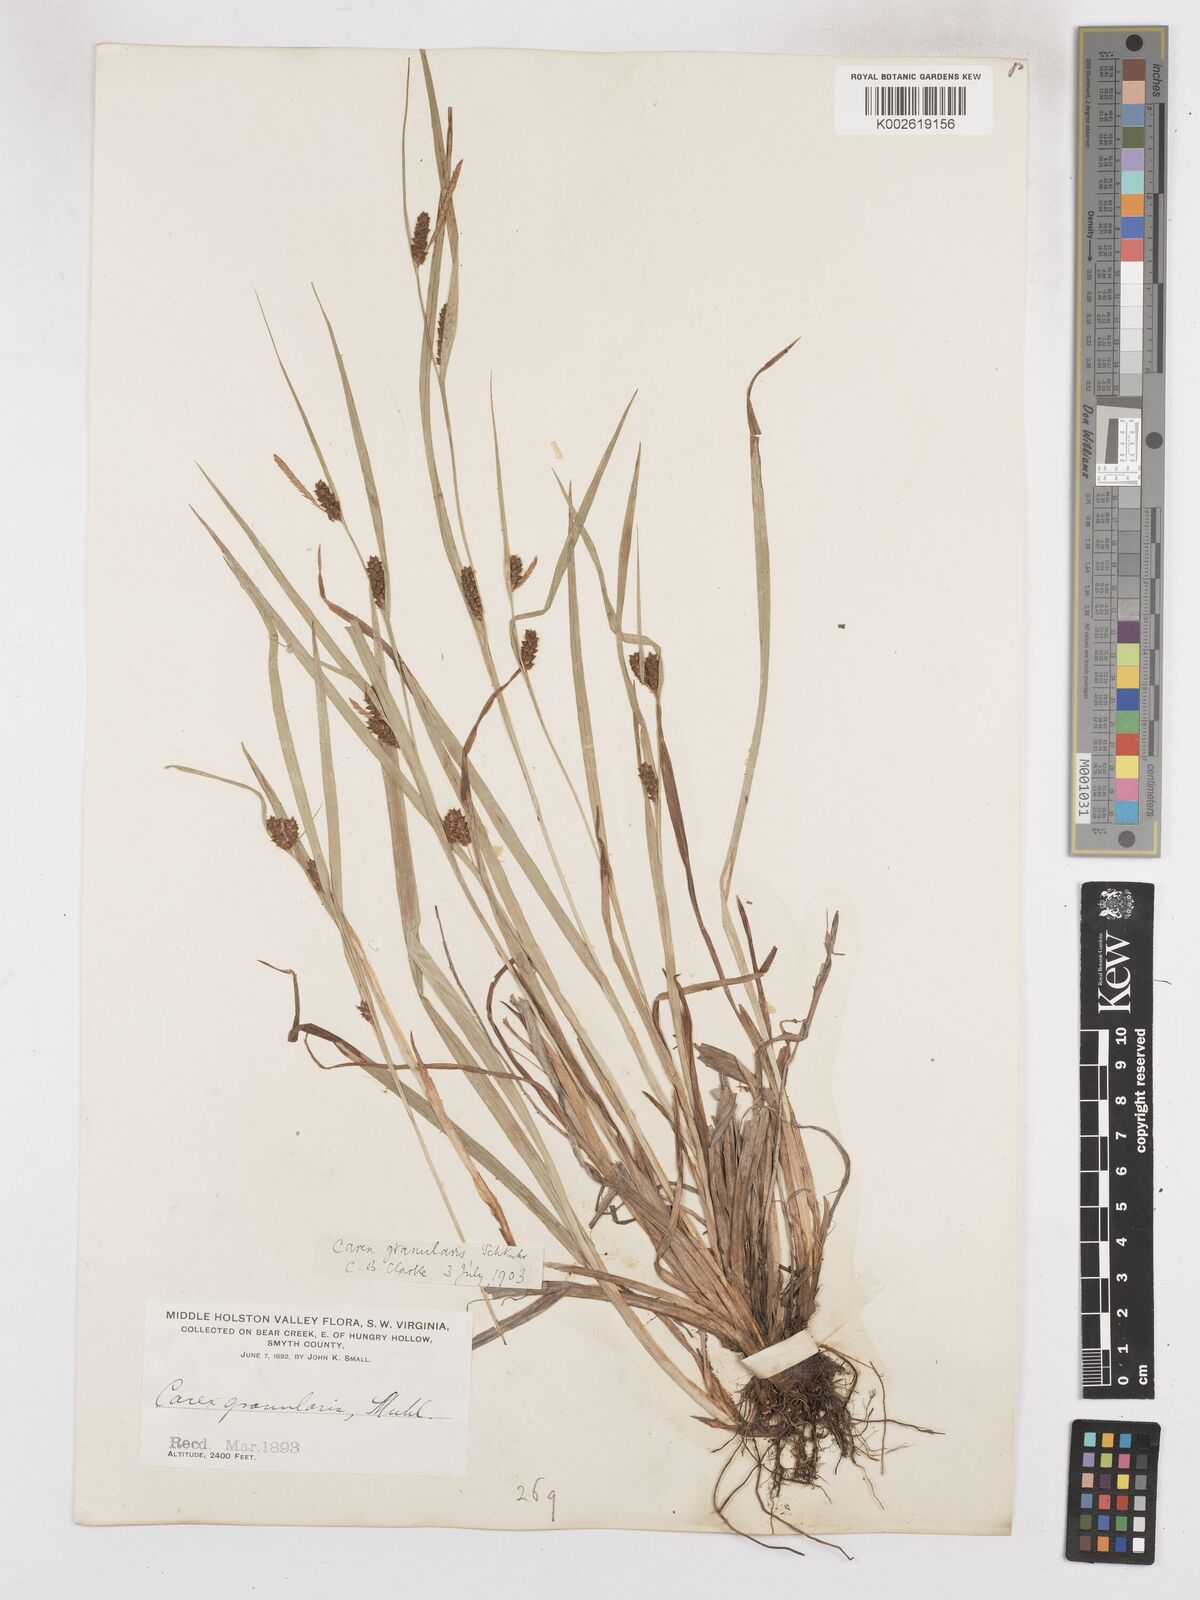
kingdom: Plantae
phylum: Tracheophyta
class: Liliopsida
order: Poales
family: Cyperaceae
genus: Carex
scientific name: Carex granularis
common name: Granular sedge
